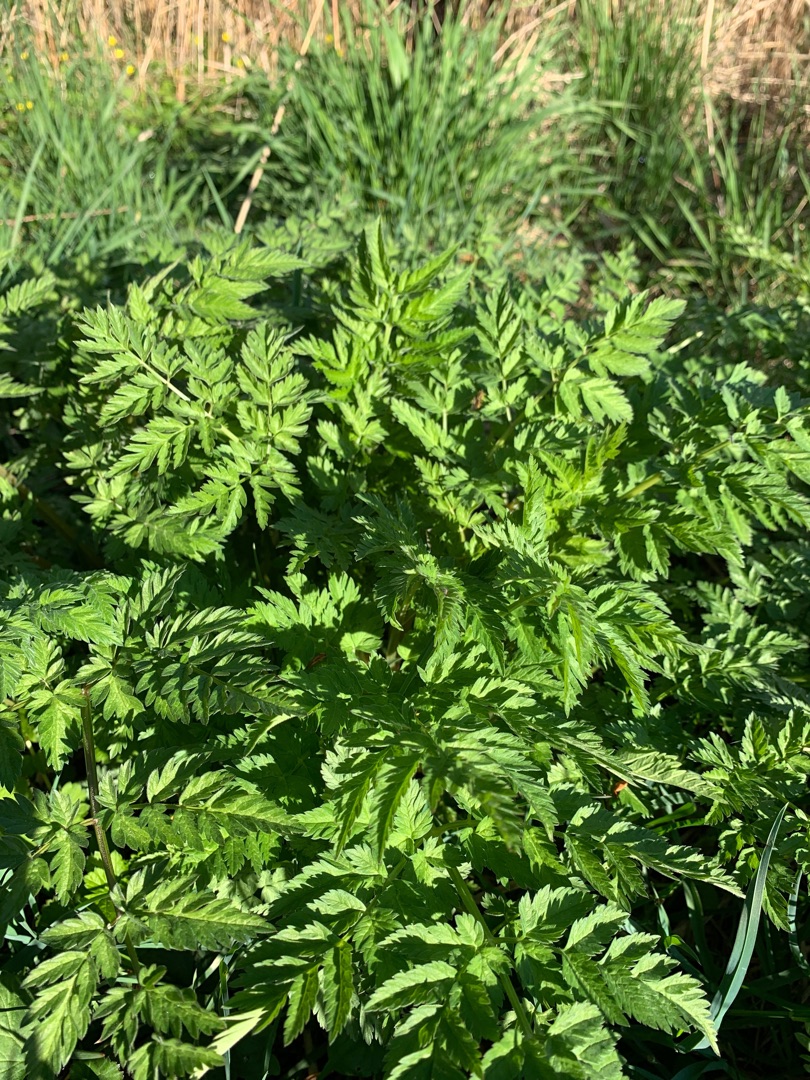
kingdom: Plantae
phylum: Tracheophyta
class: Magnoliopsida
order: Apiales
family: Apiaceae
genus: Anthriscus
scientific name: Anthriscus sylvestris
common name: Vild kørvel
